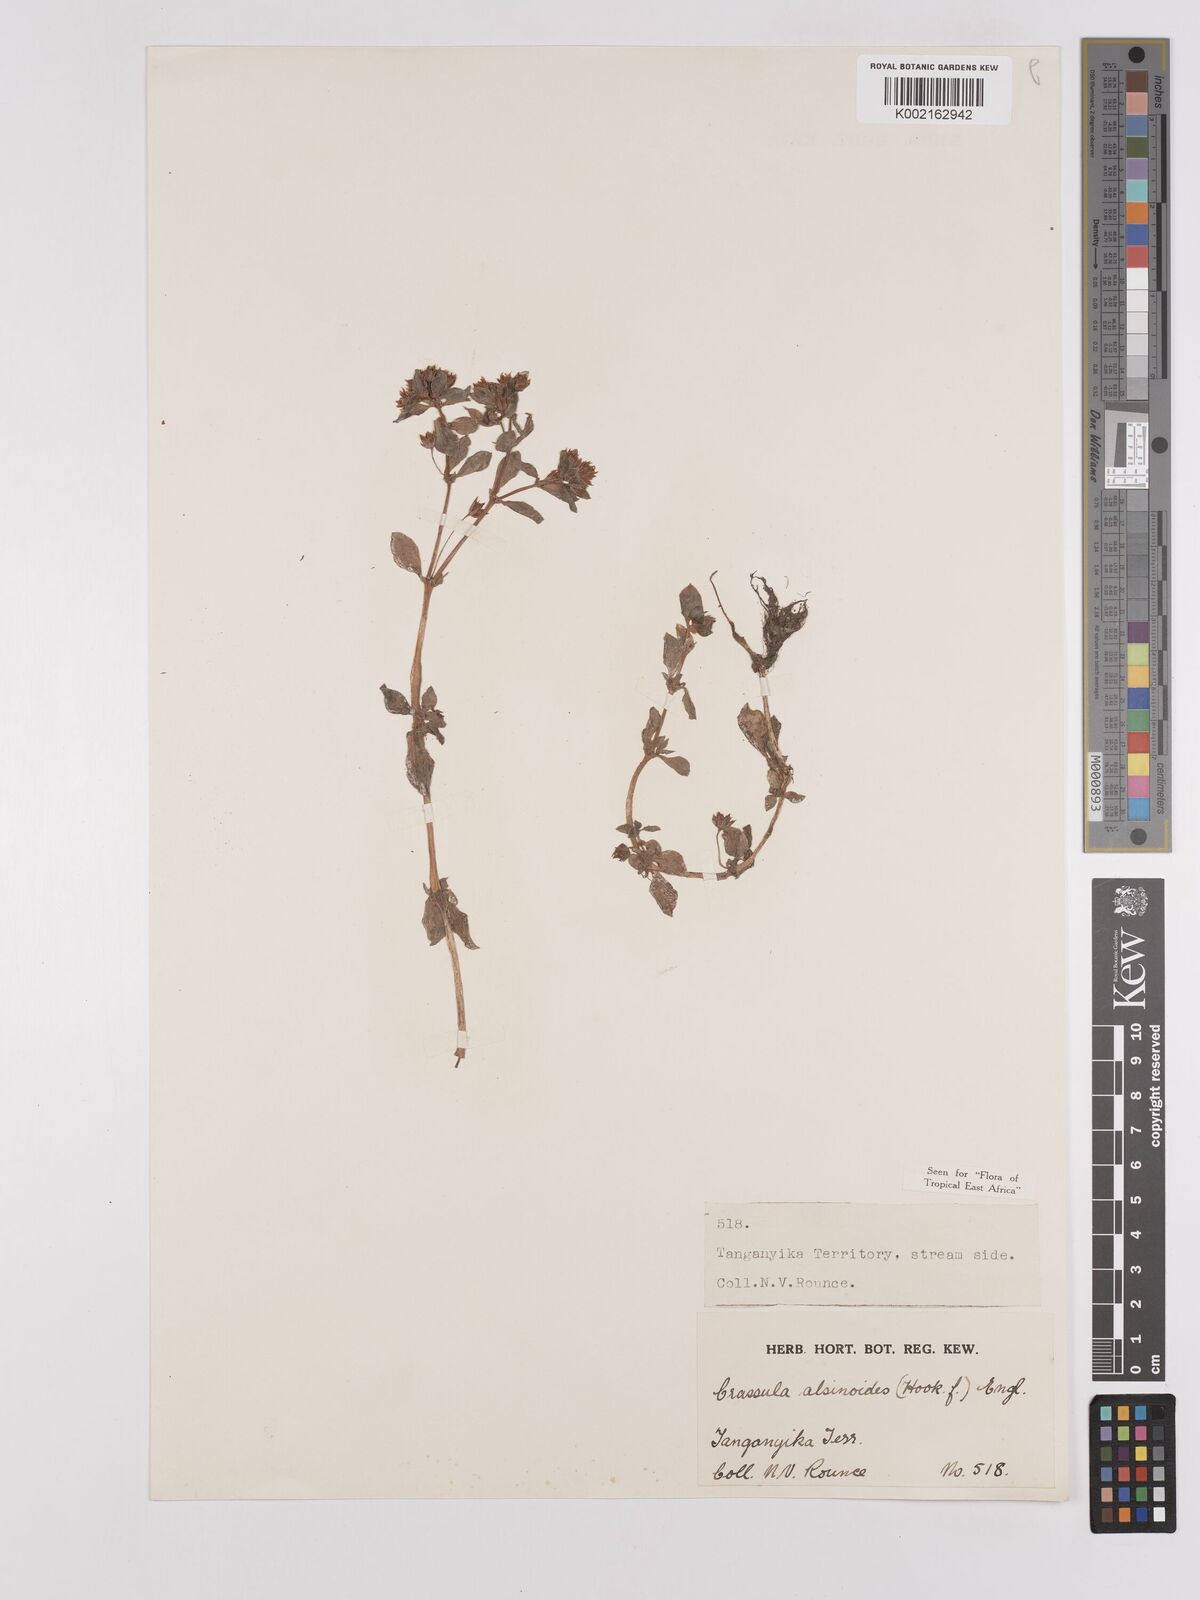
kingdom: Plantae
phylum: Tracheophyta
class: Magnoliopsida
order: Saxifragales
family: Crassulaceae
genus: Crassula
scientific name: Crassula alsinoides
